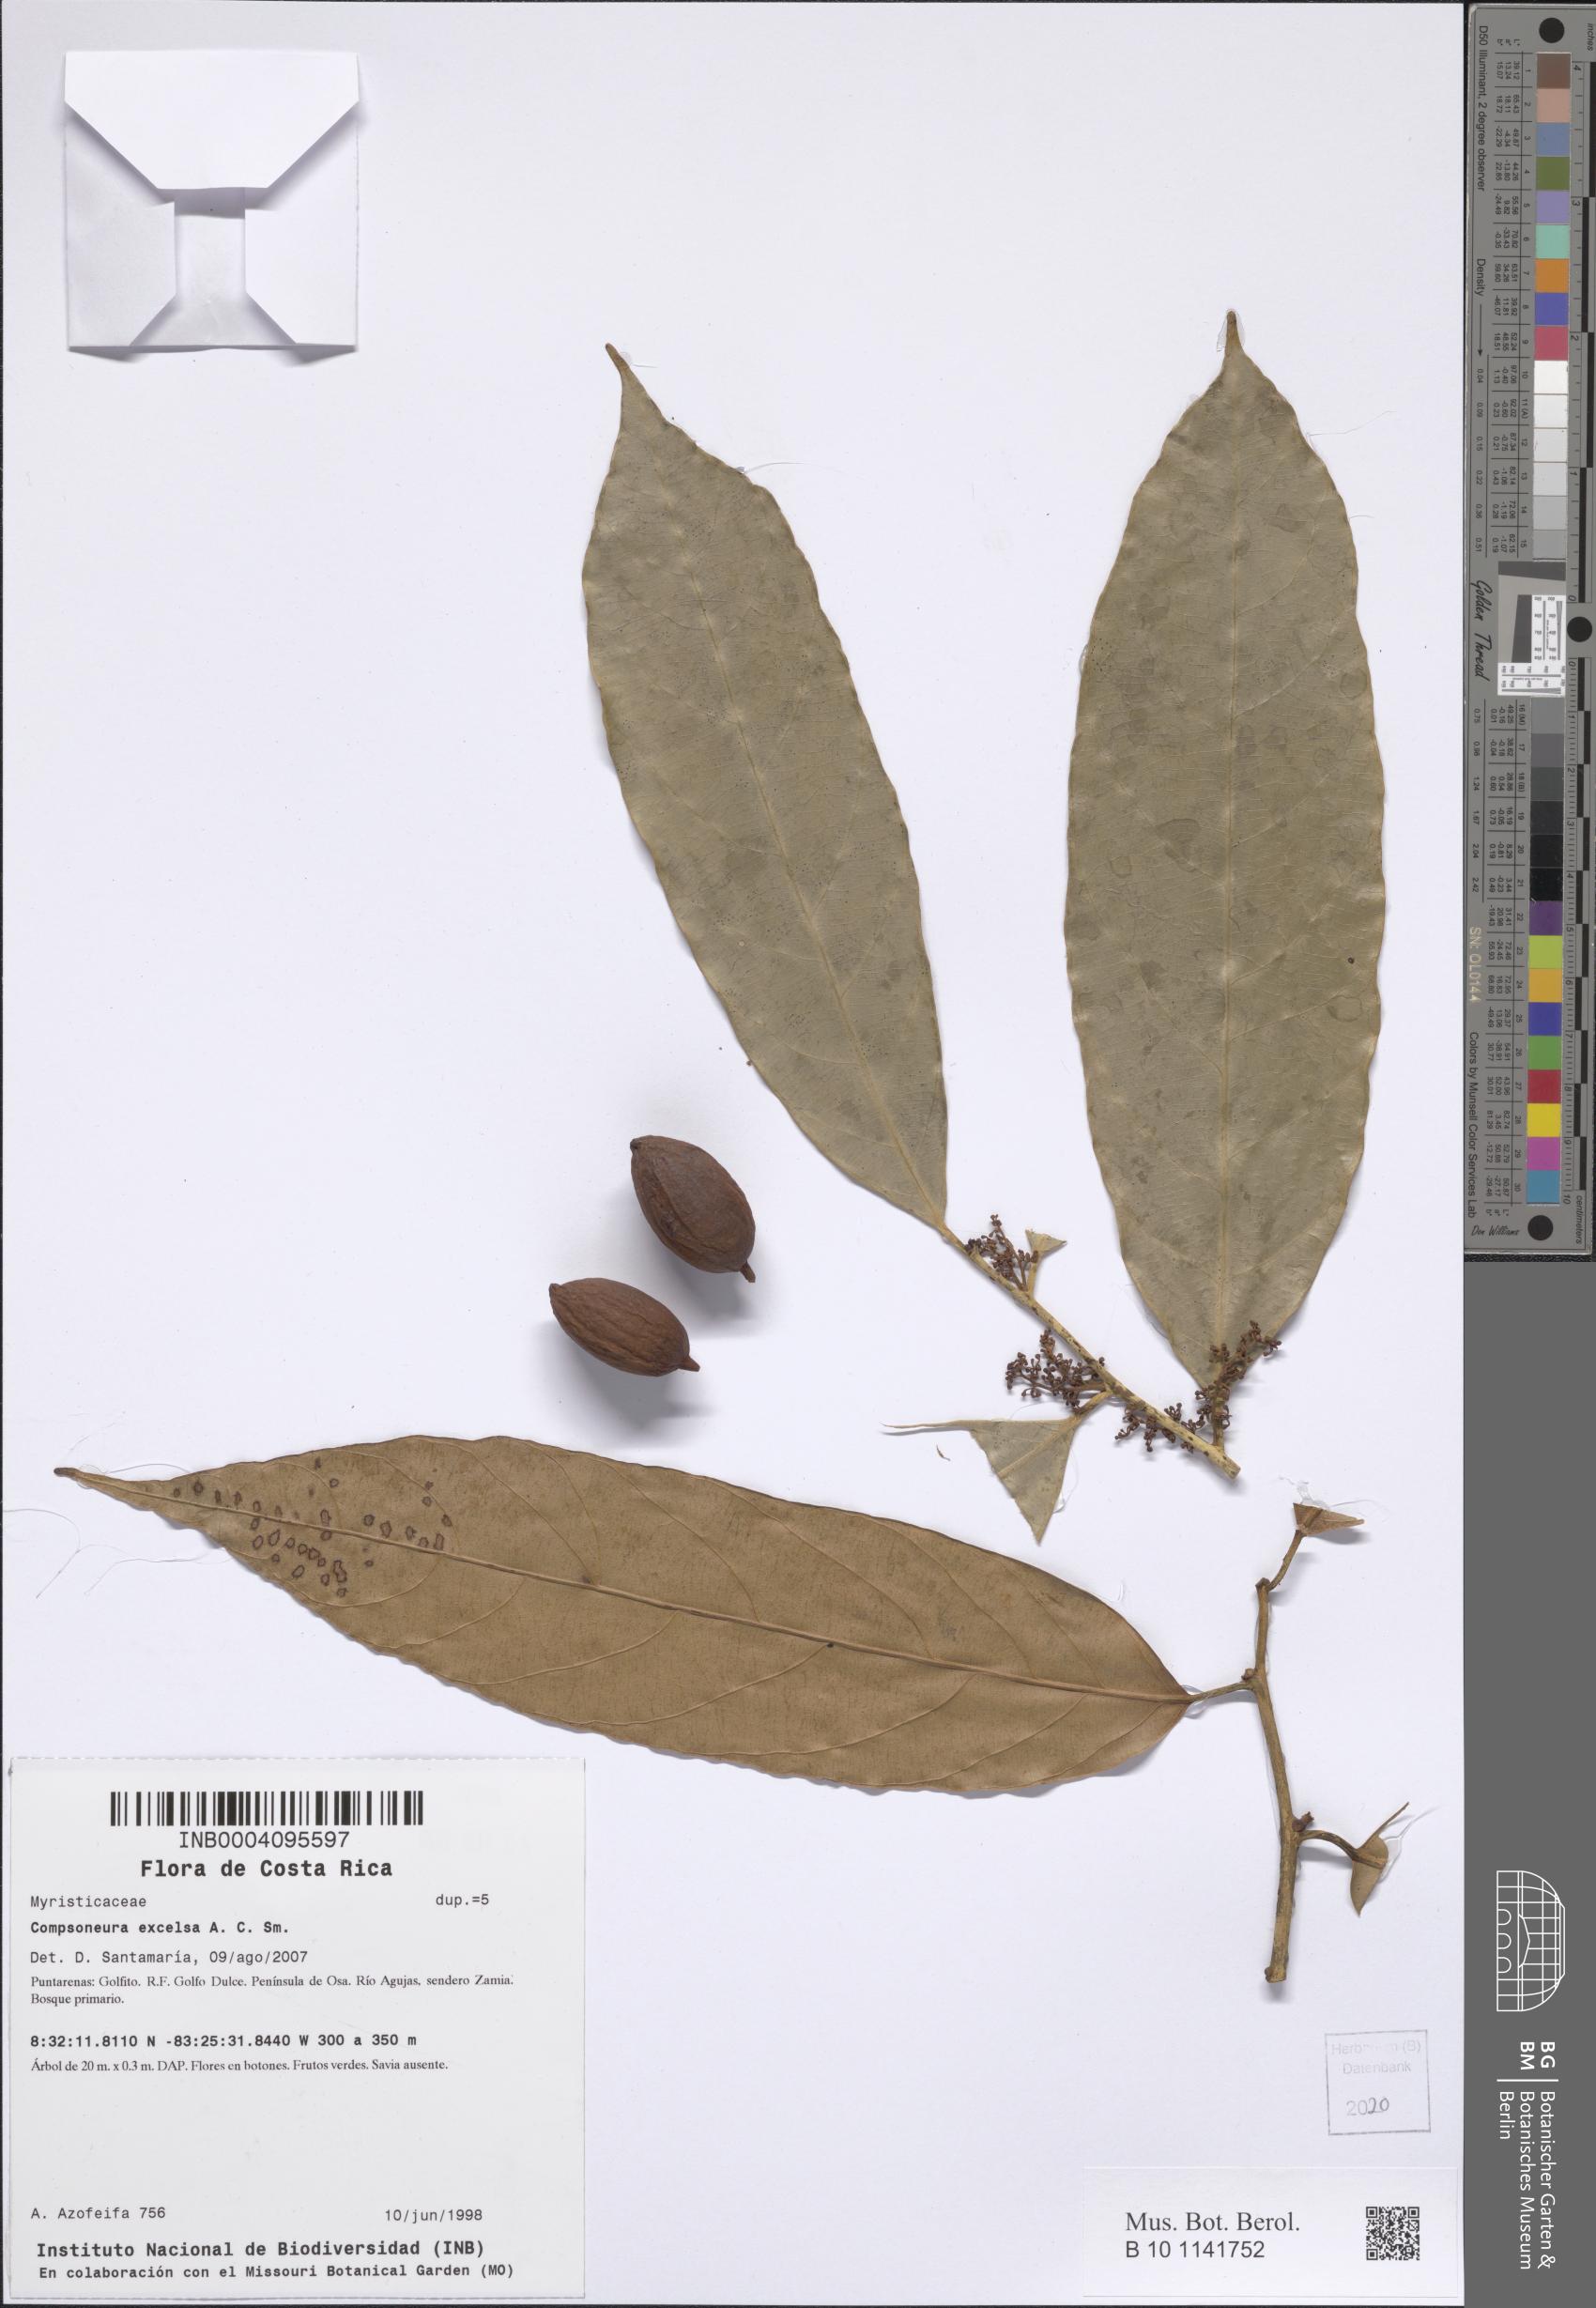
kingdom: Plantae
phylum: Tracheophyta
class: Magnoliopsida
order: Magnoliales
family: Myristicaceae
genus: Compsoneura
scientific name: Compsoneura excelsa
